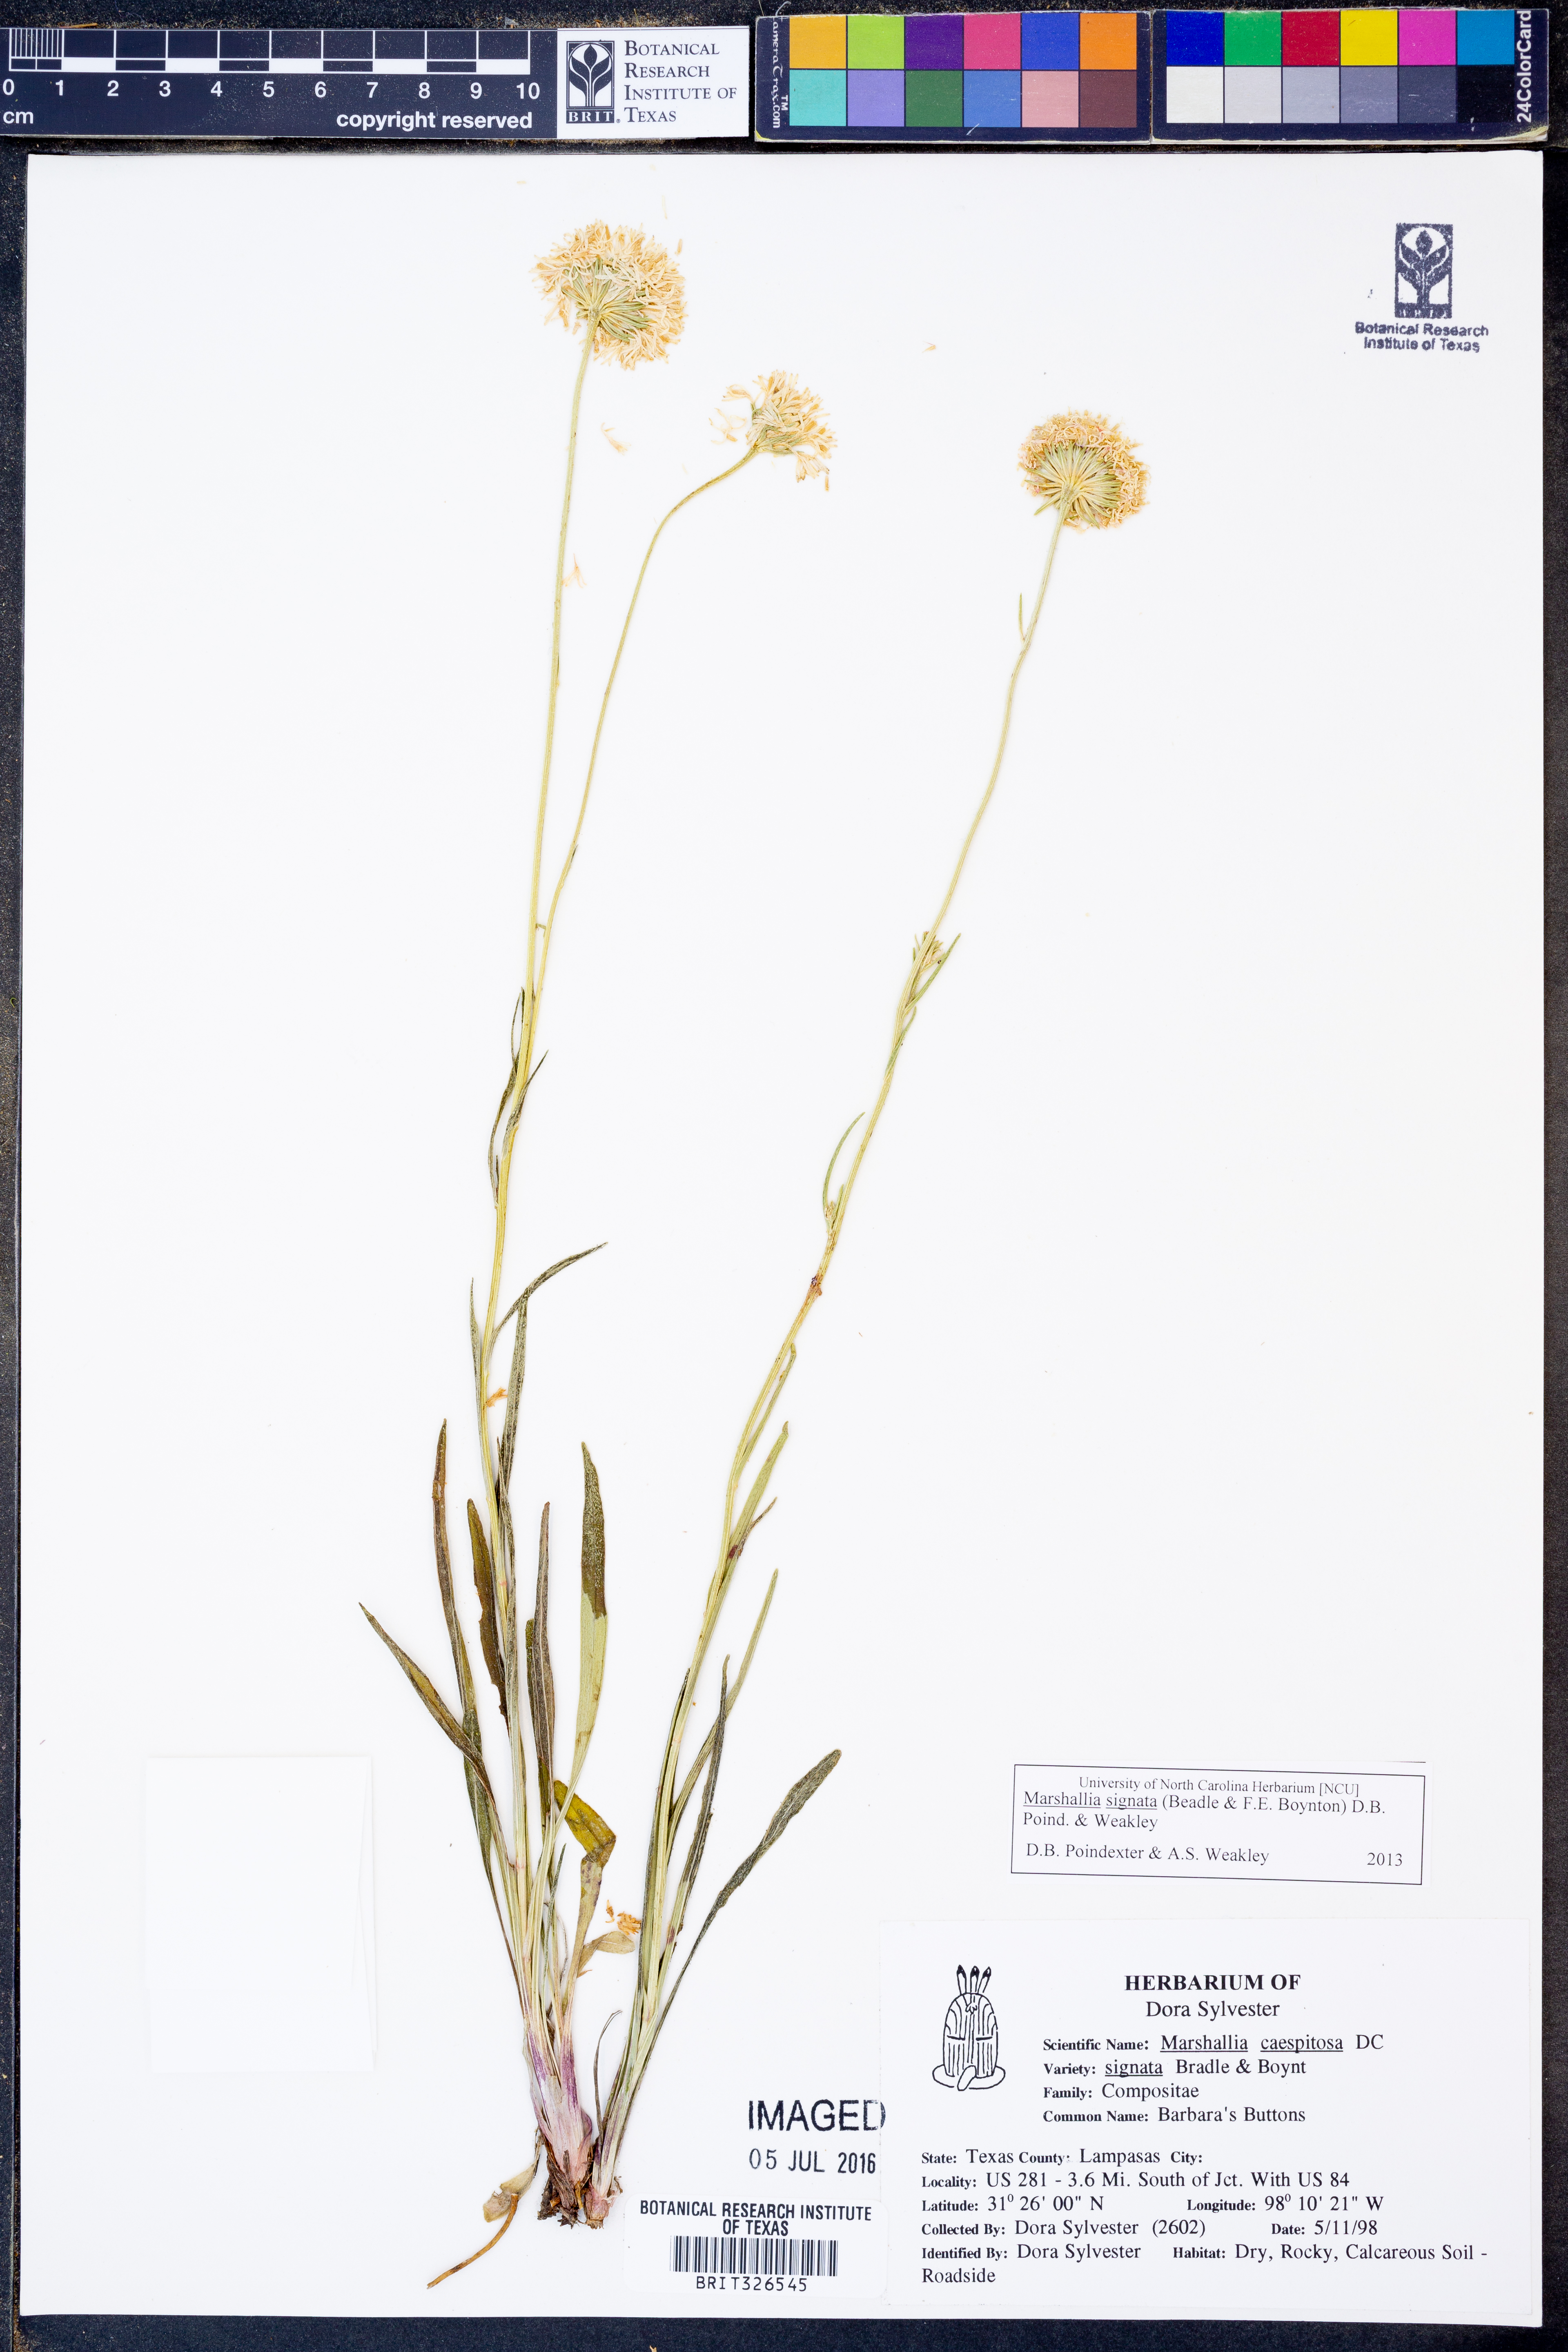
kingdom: Plantae
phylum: Tracheophyta
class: Magnoliopsida
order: Asterales
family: Asteraceae
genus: Marshallia
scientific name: Marshallia
